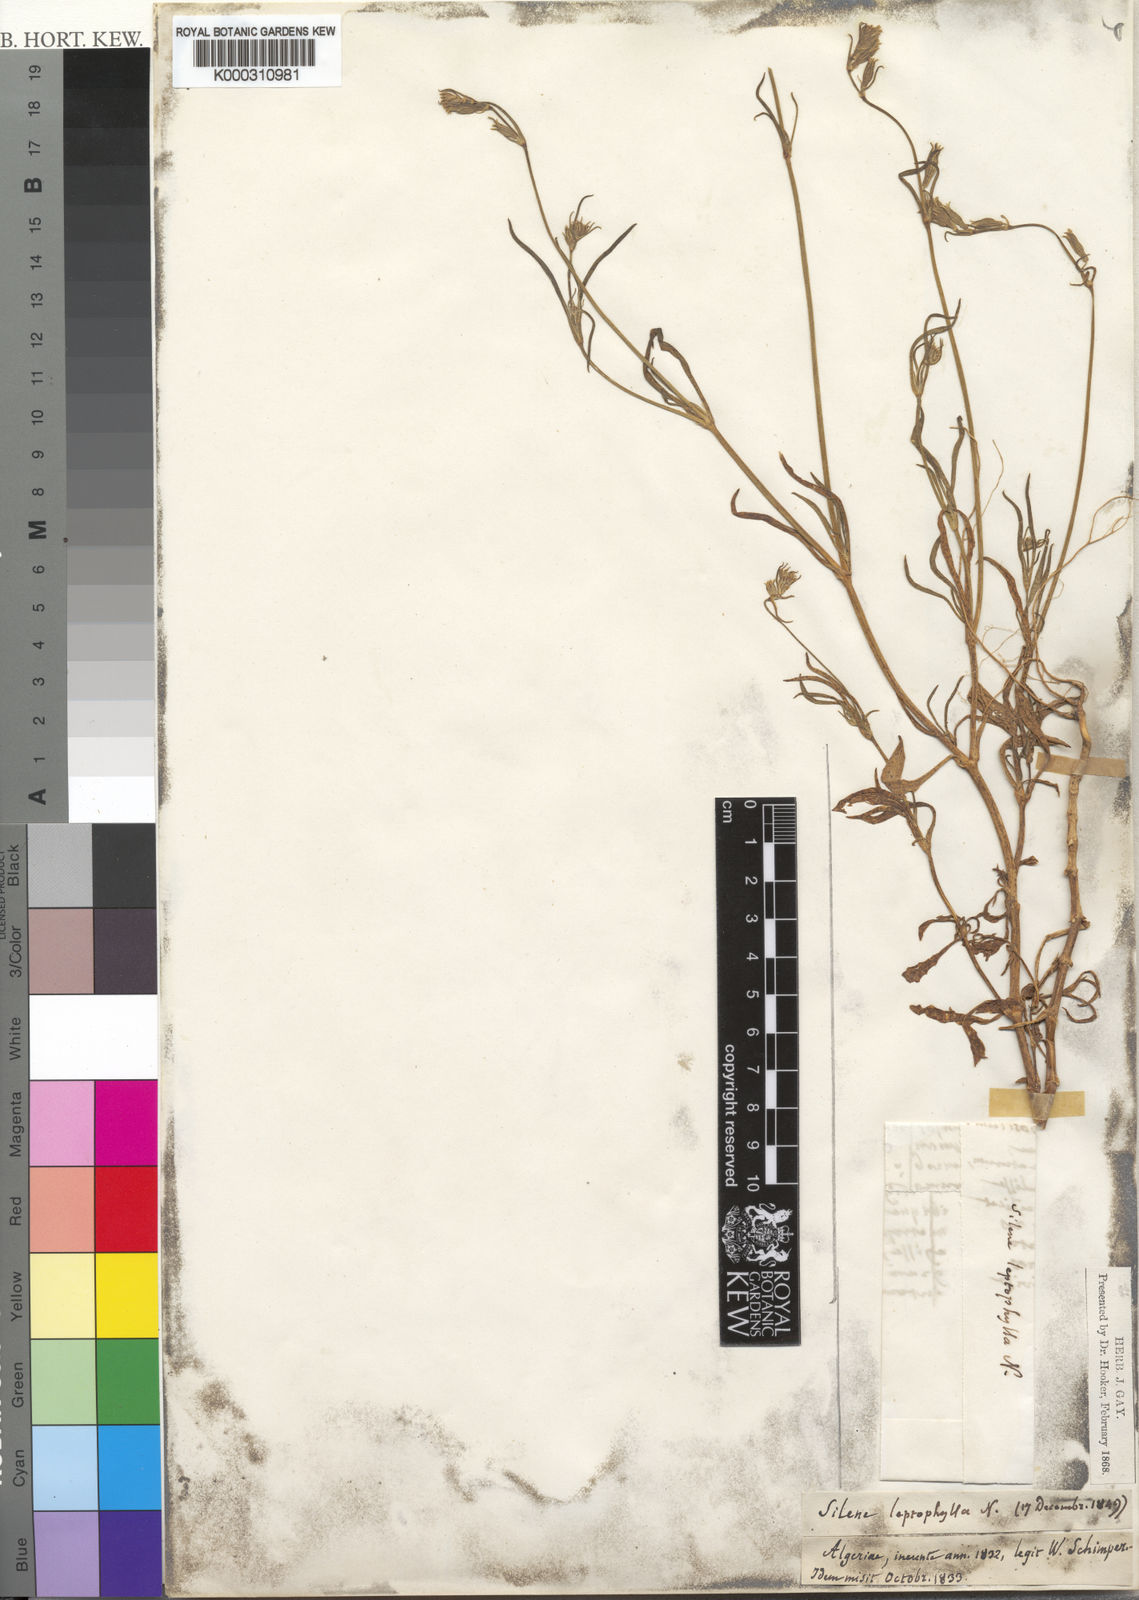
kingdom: Plantae
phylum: Tracheophyta
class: Magnoliopsida
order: Caryophyllales
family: Caryophyllaceae
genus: Silene
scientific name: Silene
